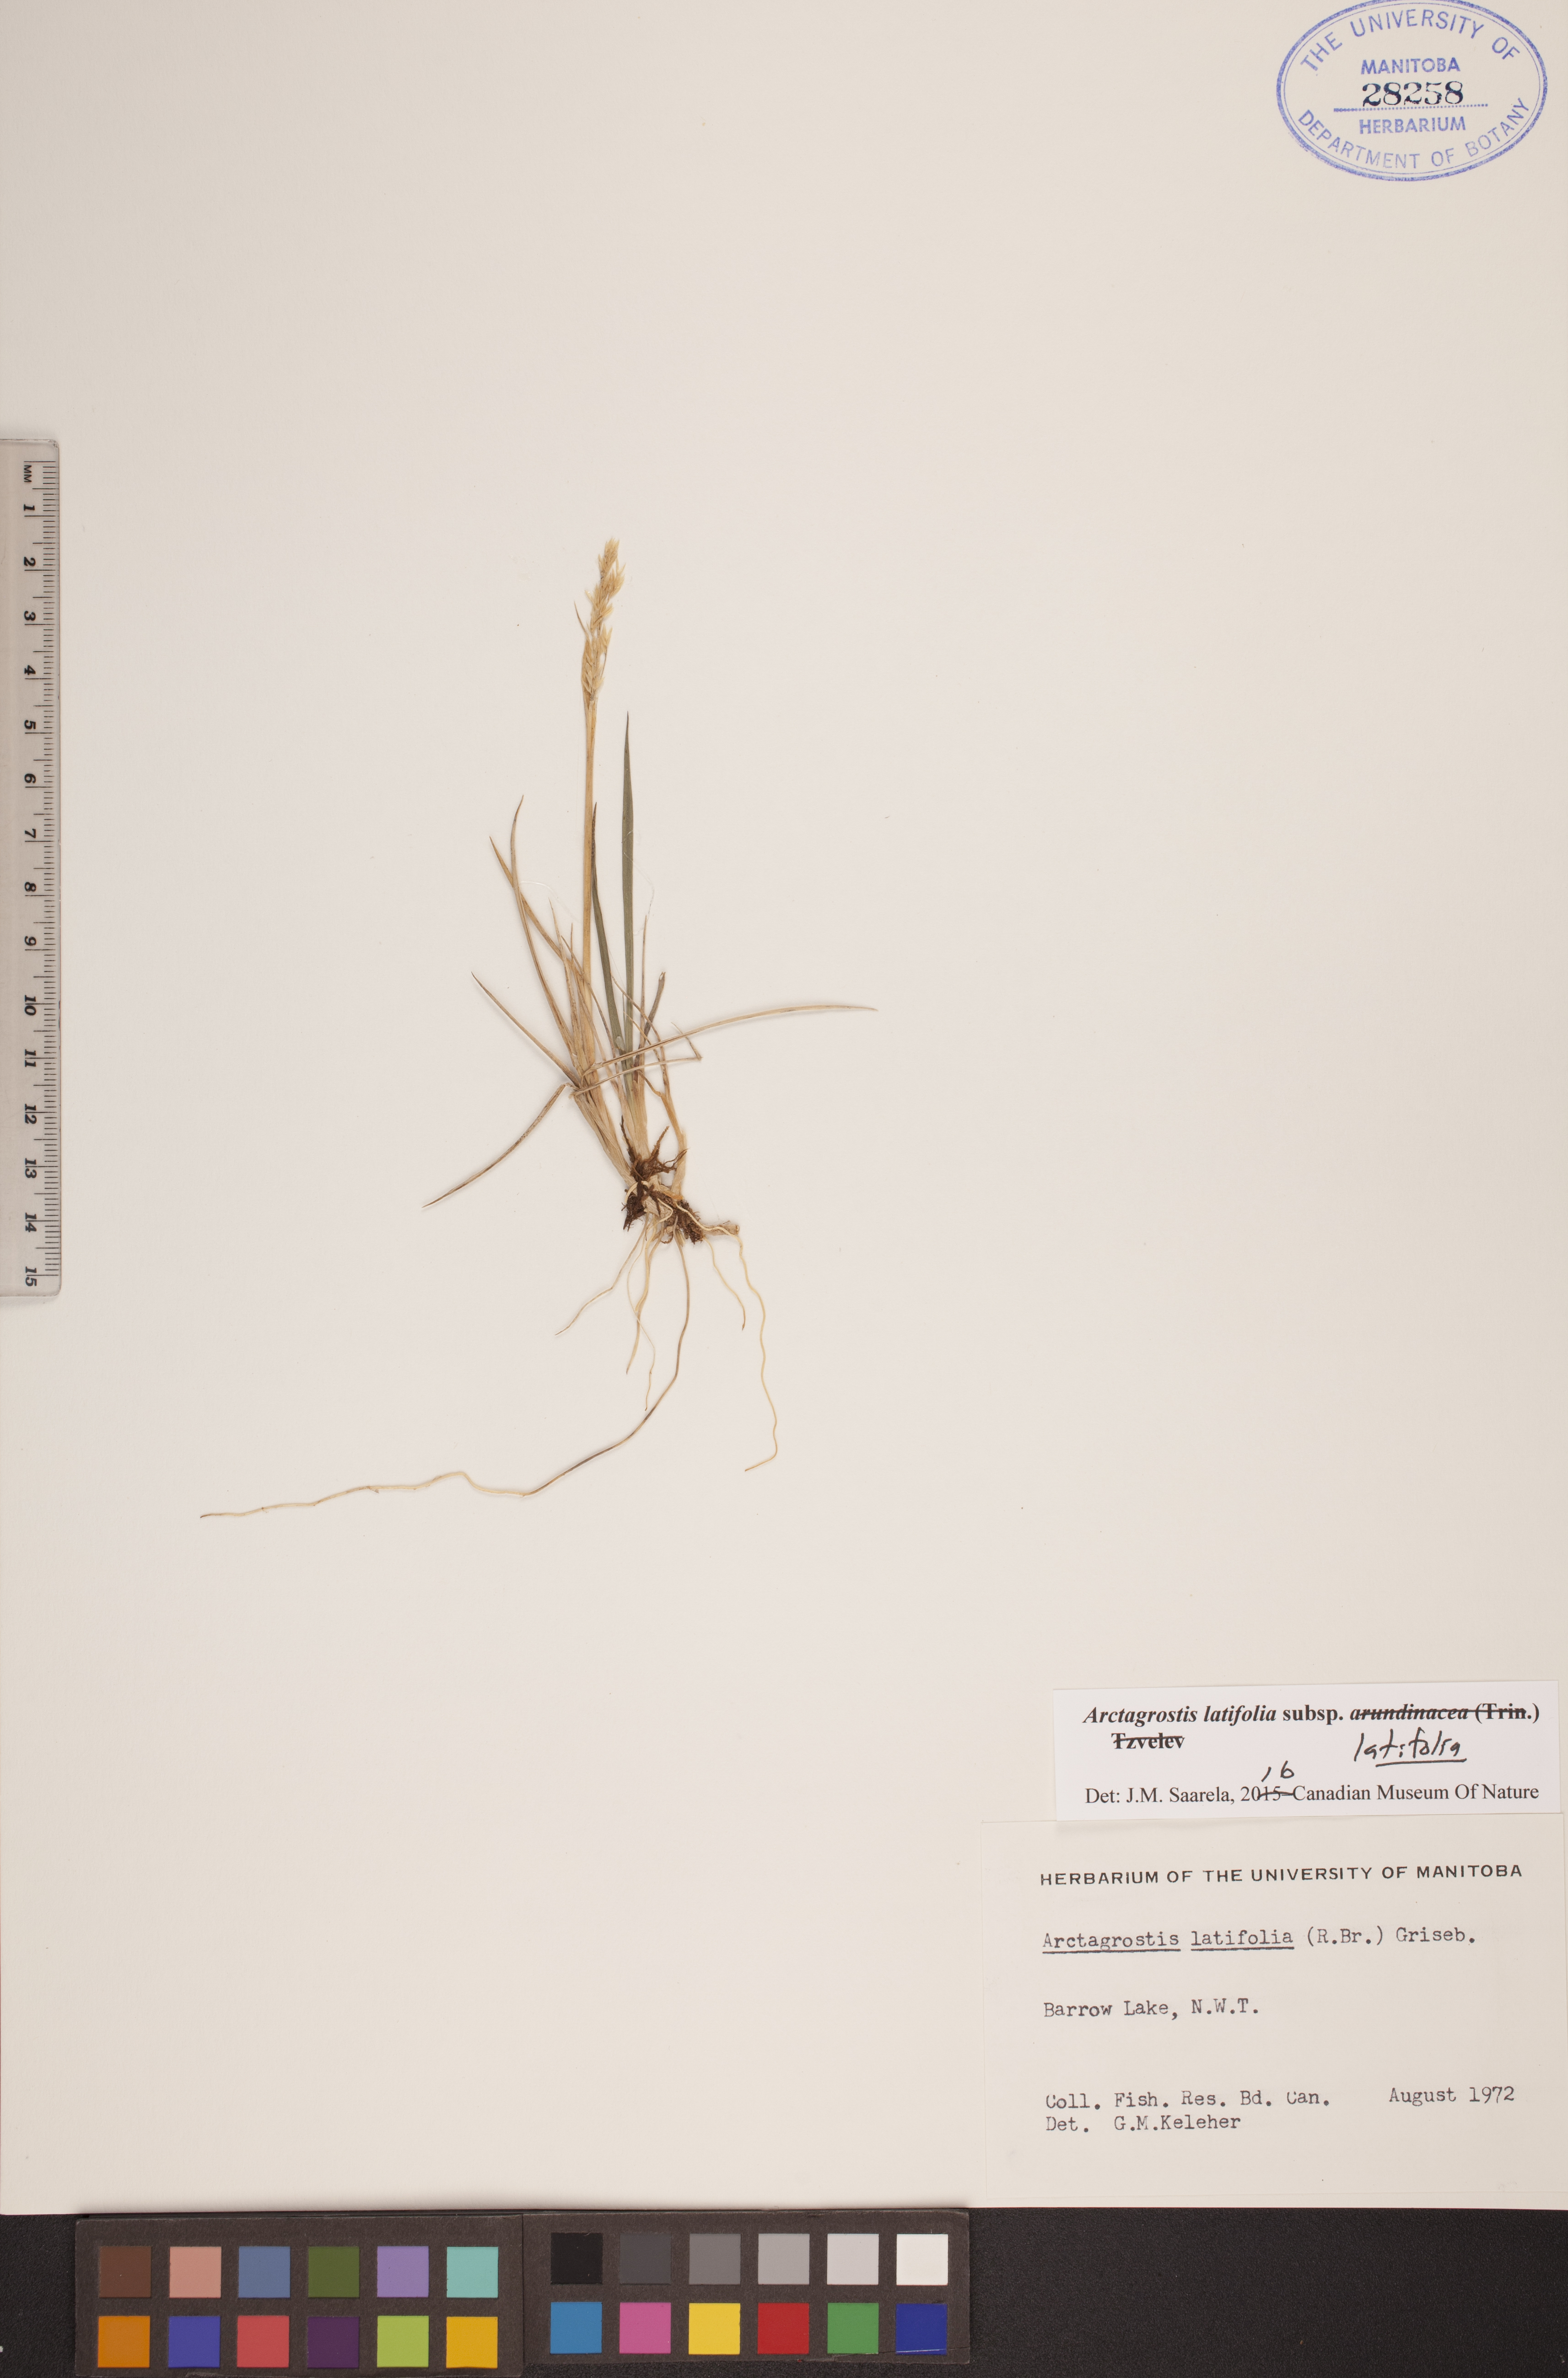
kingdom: Plantae
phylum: Tracheophyta
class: Liliopsida
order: Poales
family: Poaceae
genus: Arctagrostis
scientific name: Arctagrostis latifolia
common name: Arctic grass
